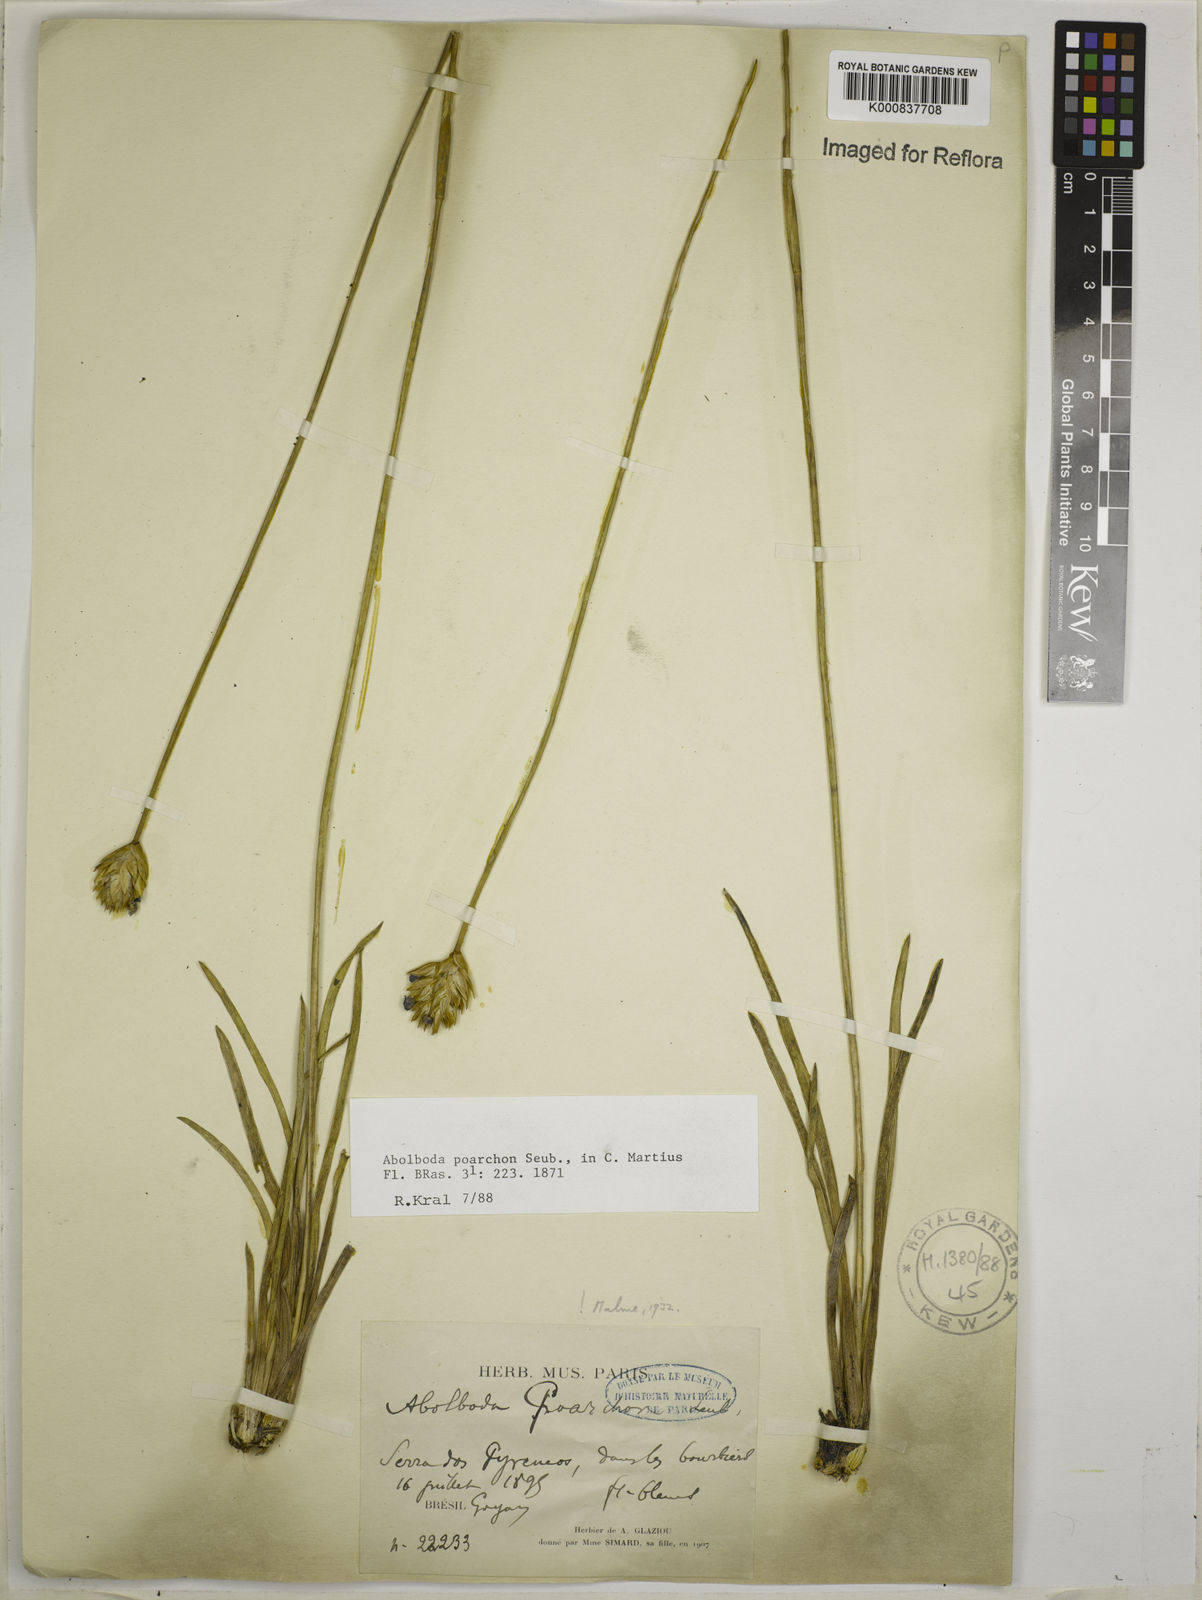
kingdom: Plantae
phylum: Tracheophyta
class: Liliopsida
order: Poales
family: Xyridaceae
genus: Abolboda
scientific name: Abolboda poarchon
